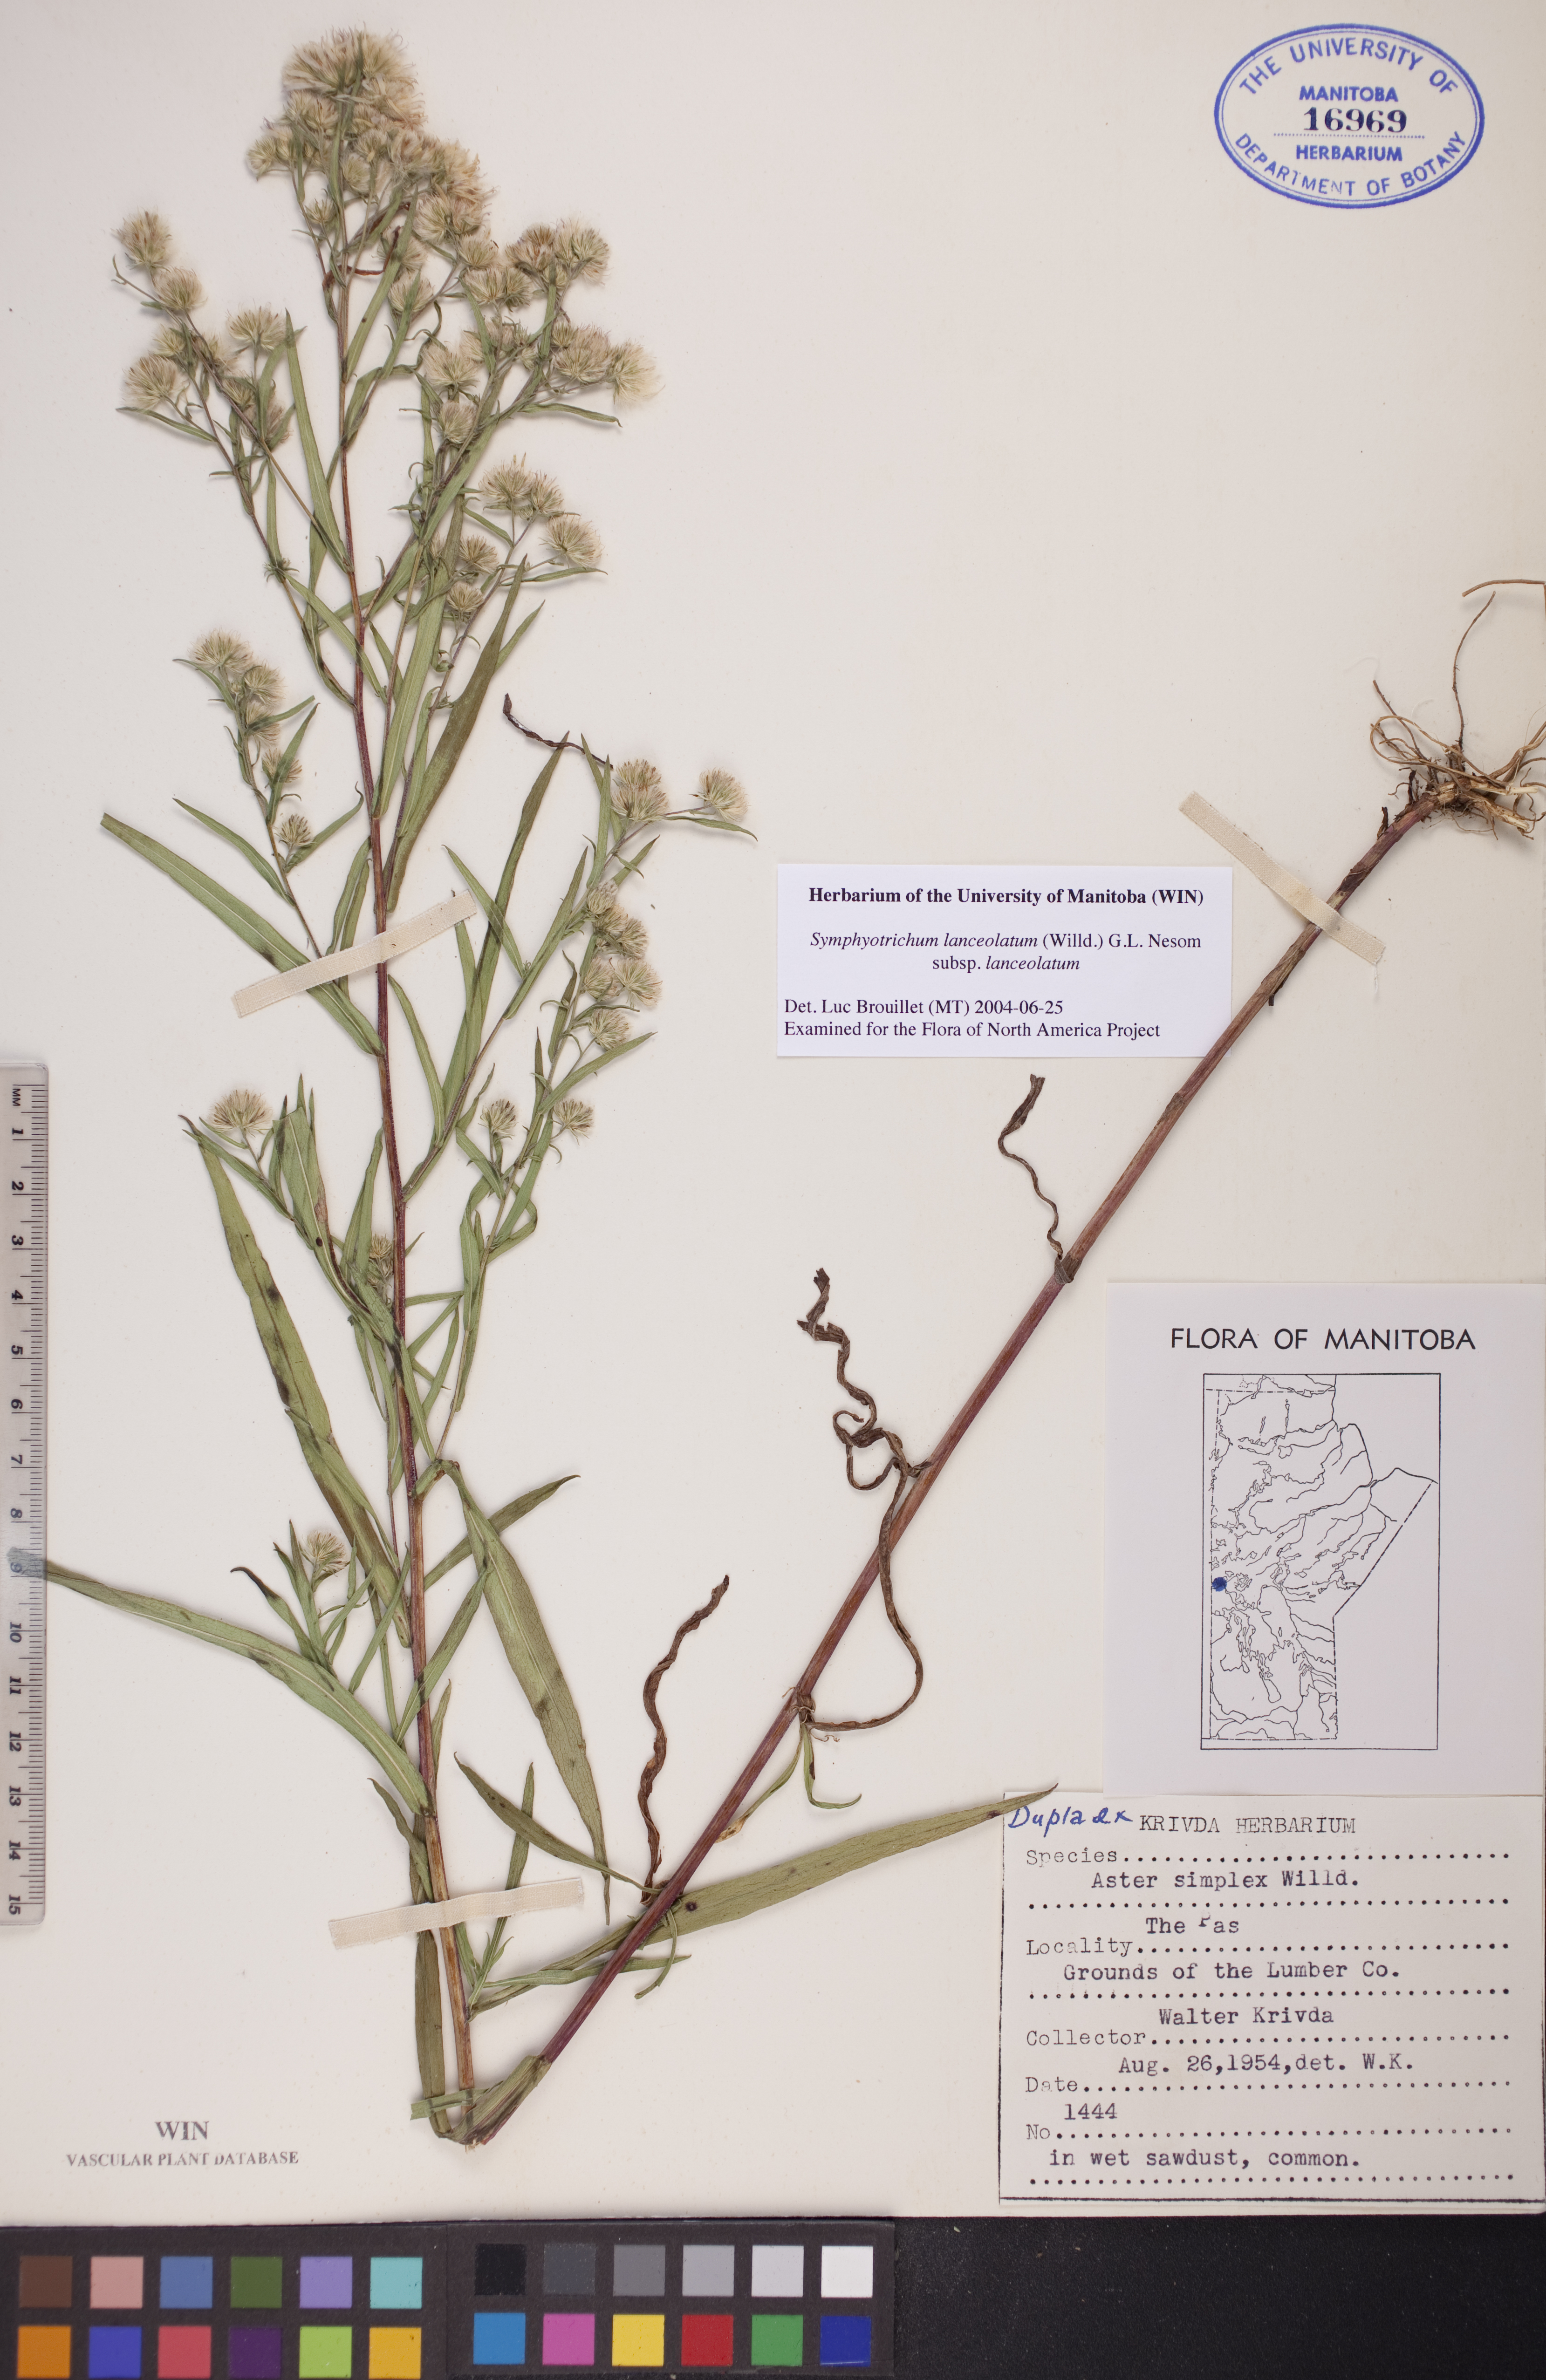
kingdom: Plantae
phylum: Tracheophyta
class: Magnoliopsida
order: Asterales
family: Asteraceae
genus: Symphyotrichum
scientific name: Symphyotrichum lanceolatum
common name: Panicled aster
